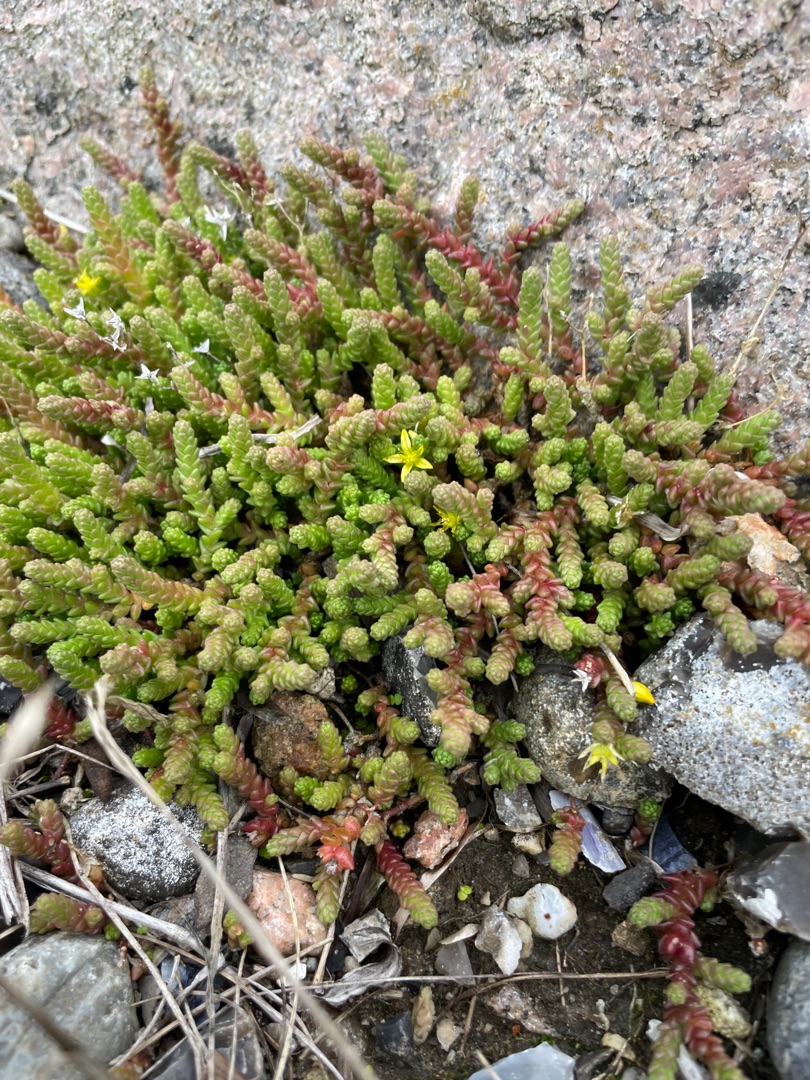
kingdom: Plantae
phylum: Tracheophyta
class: Magnoliopsida
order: Saxifragales
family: Crassulaceae
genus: Sedum
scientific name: Sedum acre
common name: Bidende stenurt
